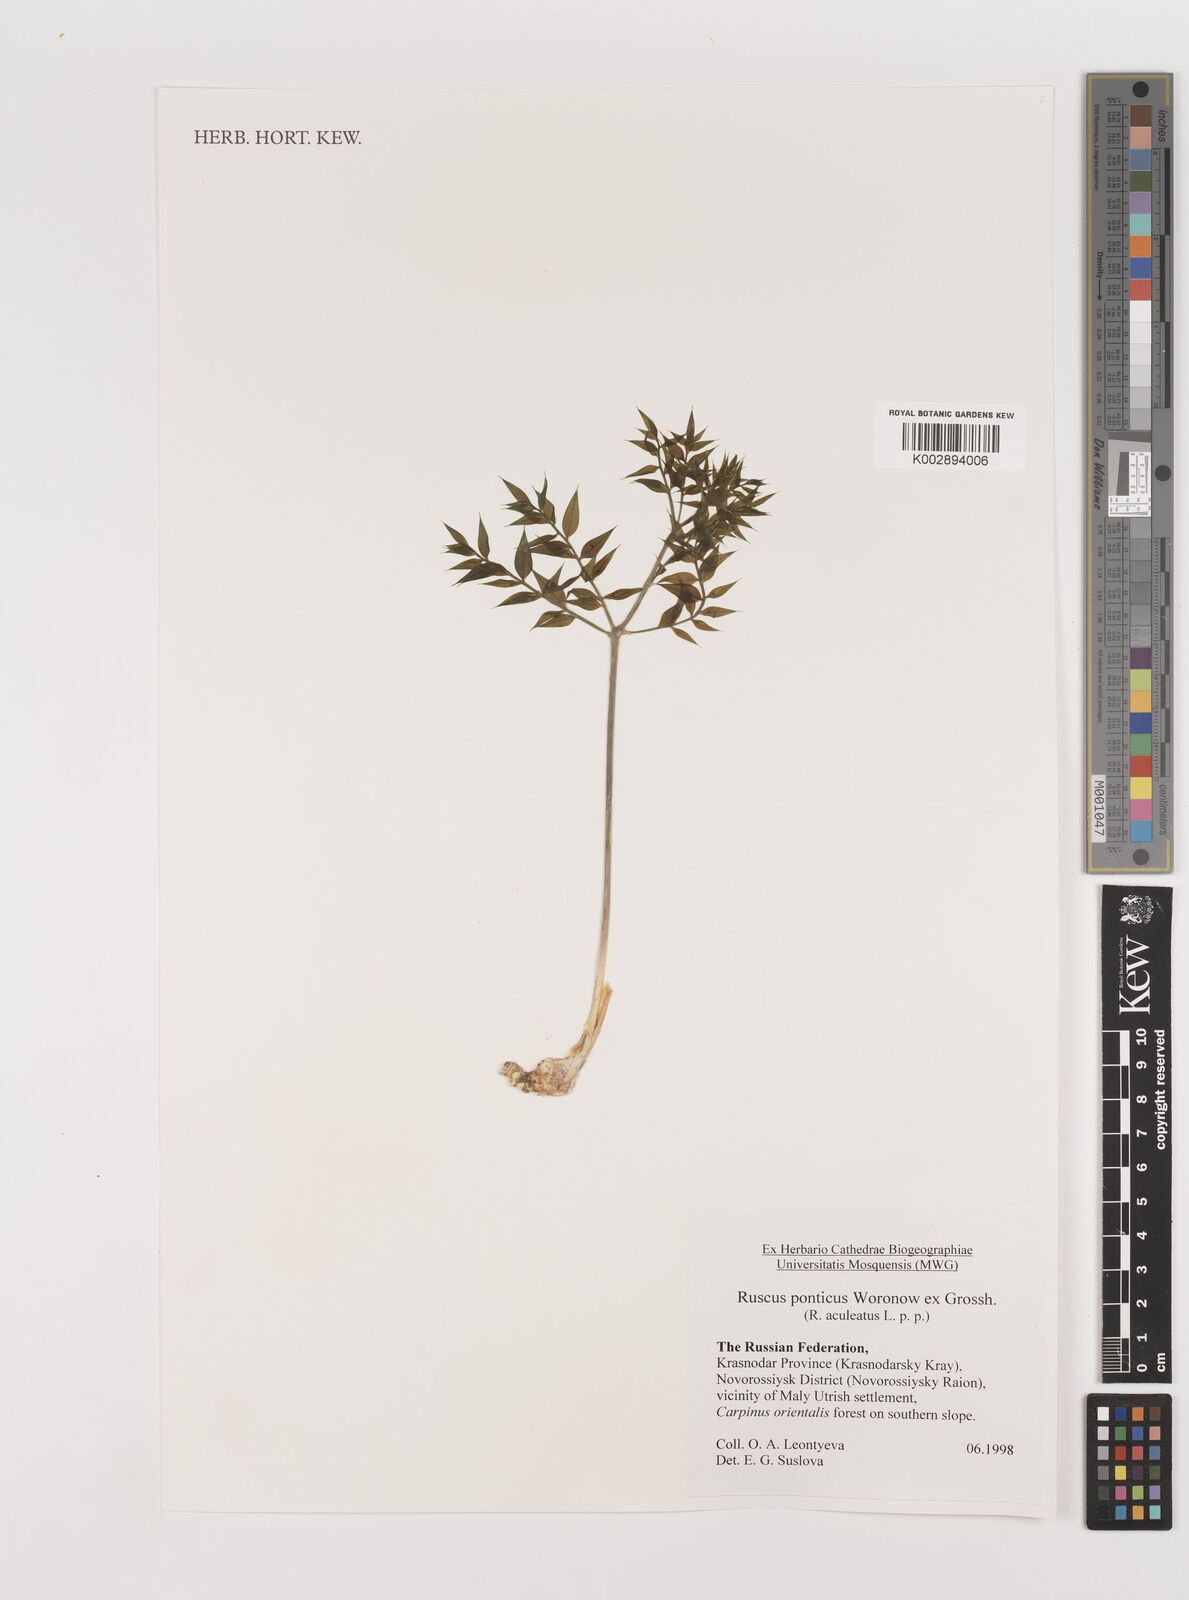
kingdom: Plantae
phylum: Tracheophyta
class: Liliopsida
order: Asparagales
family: Asparagaceae
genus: Ruscus
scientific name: Ruscus aculeatus
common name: Butcher's-broom
